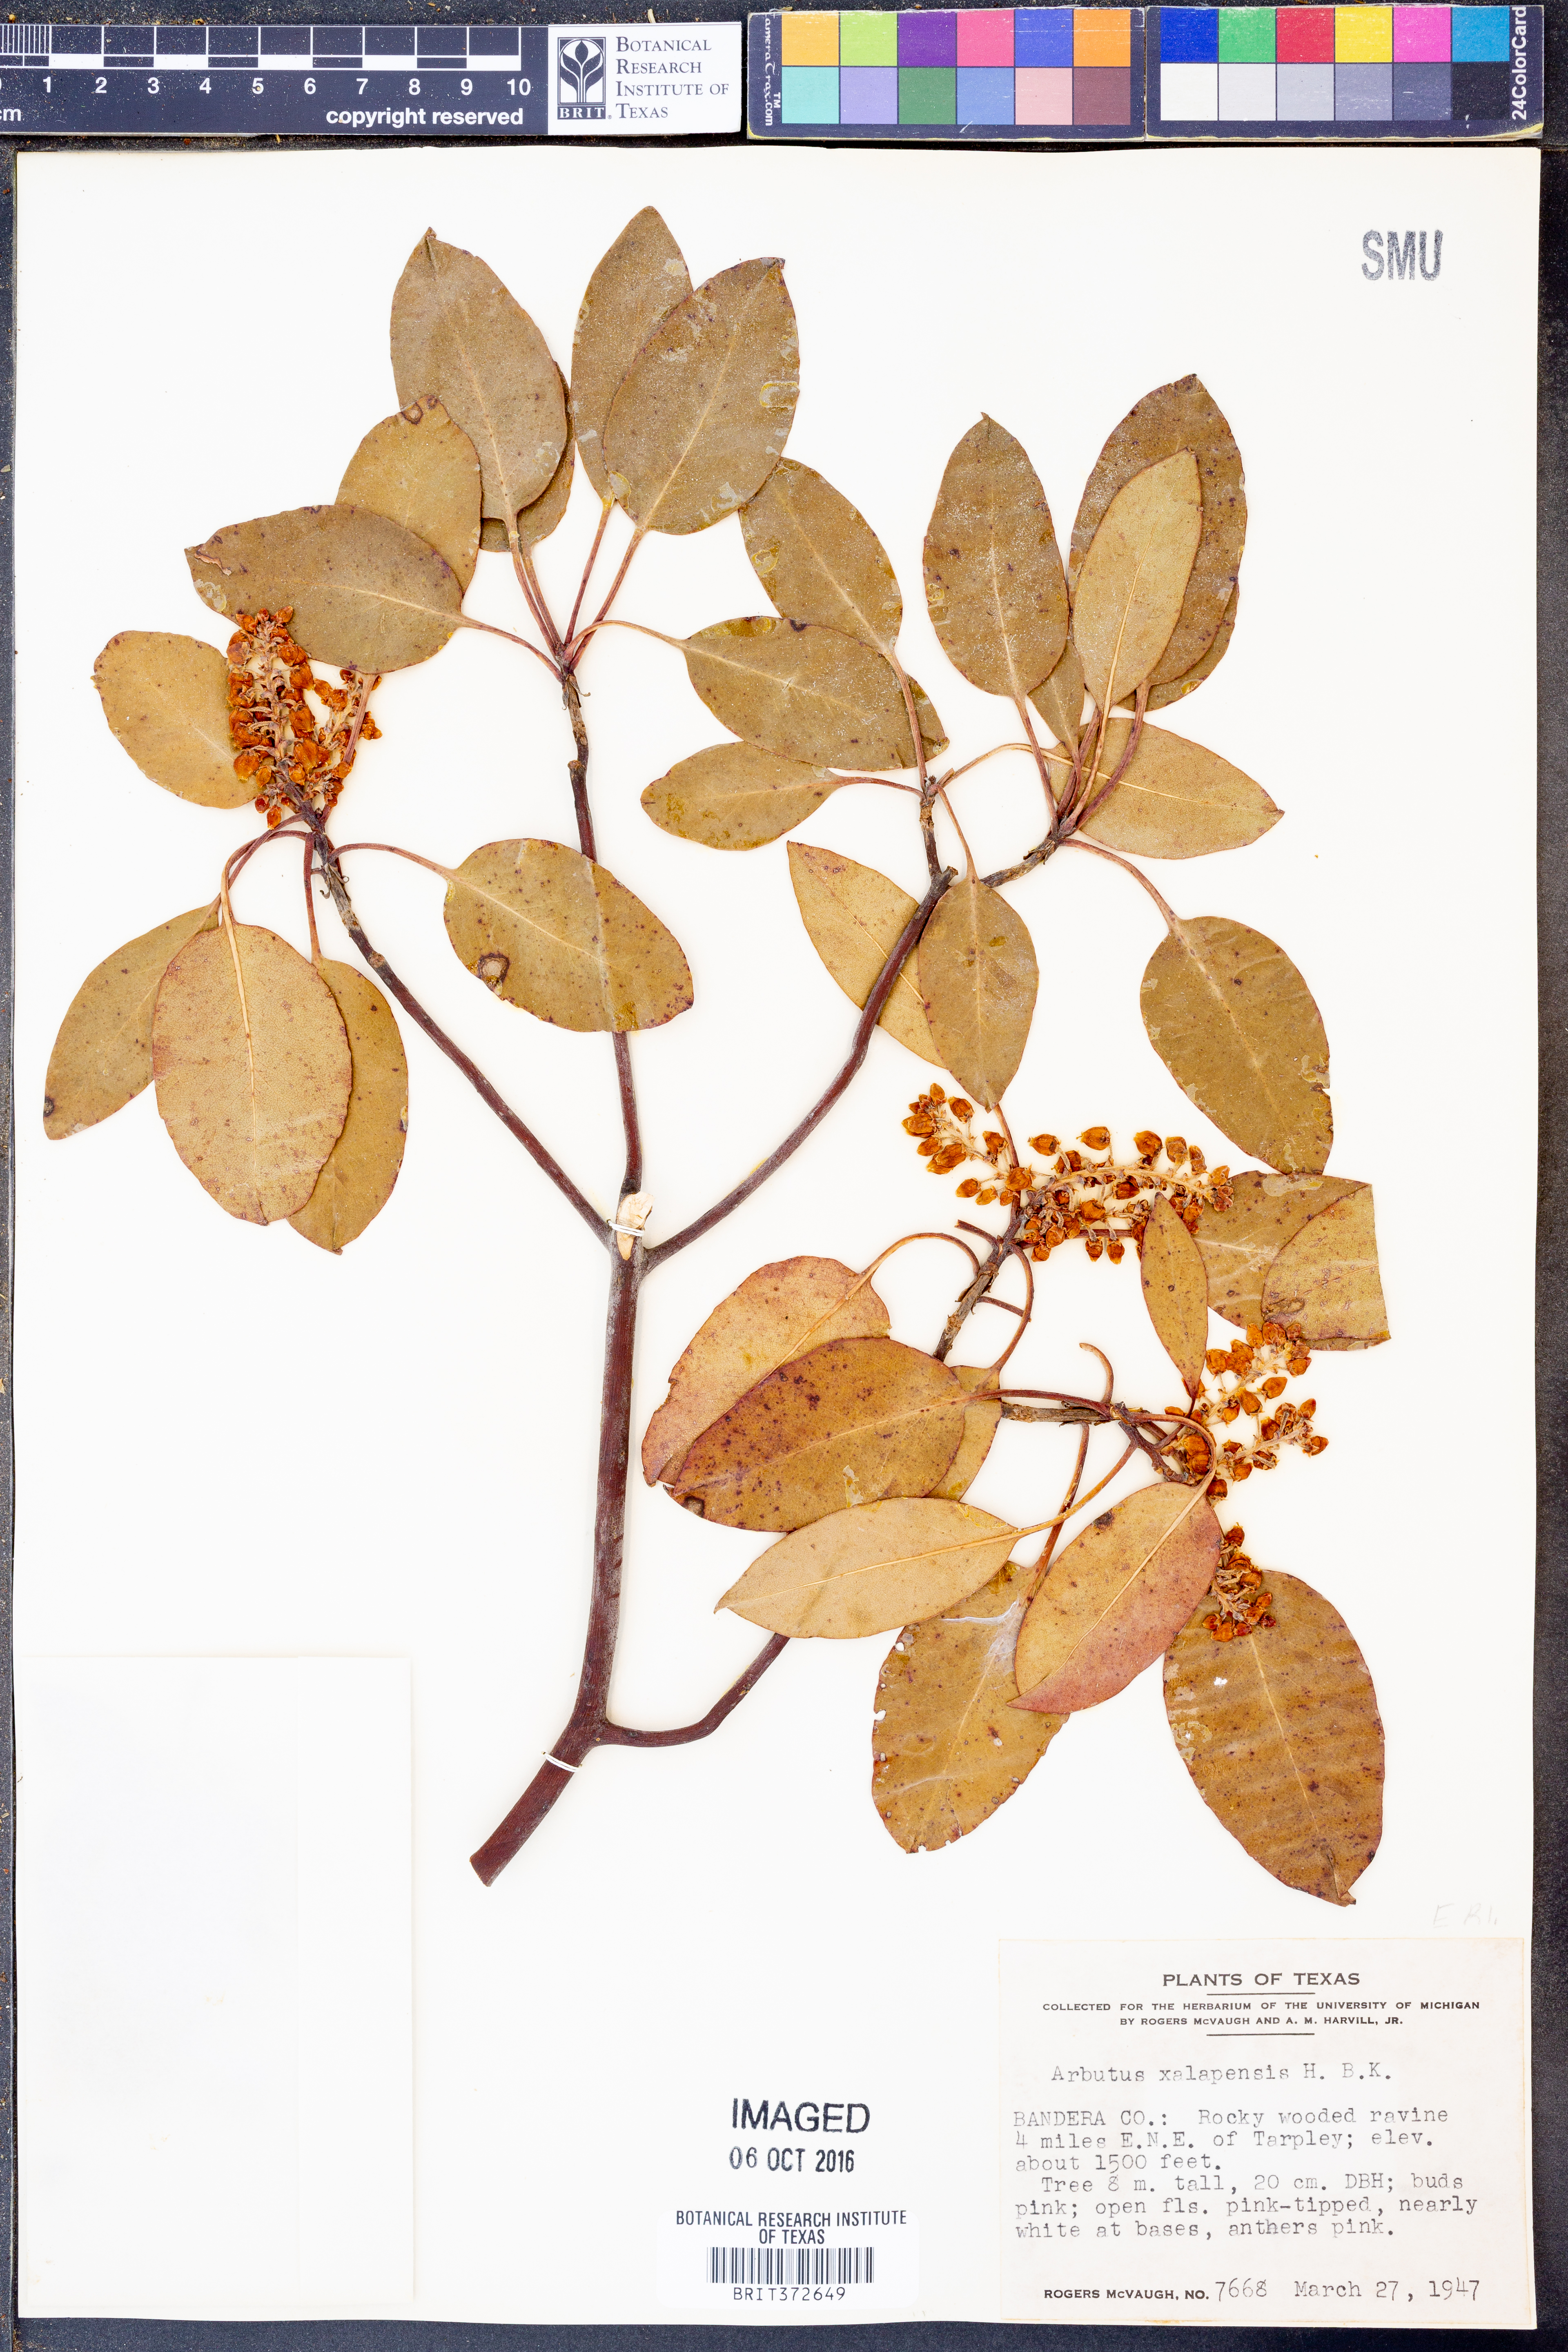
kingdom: Plantae
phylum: Tracheophyta
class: Magnoliopsida
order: Ericales
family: Ericaceae
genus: Arbutus
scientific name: Arbutus xalapensis
